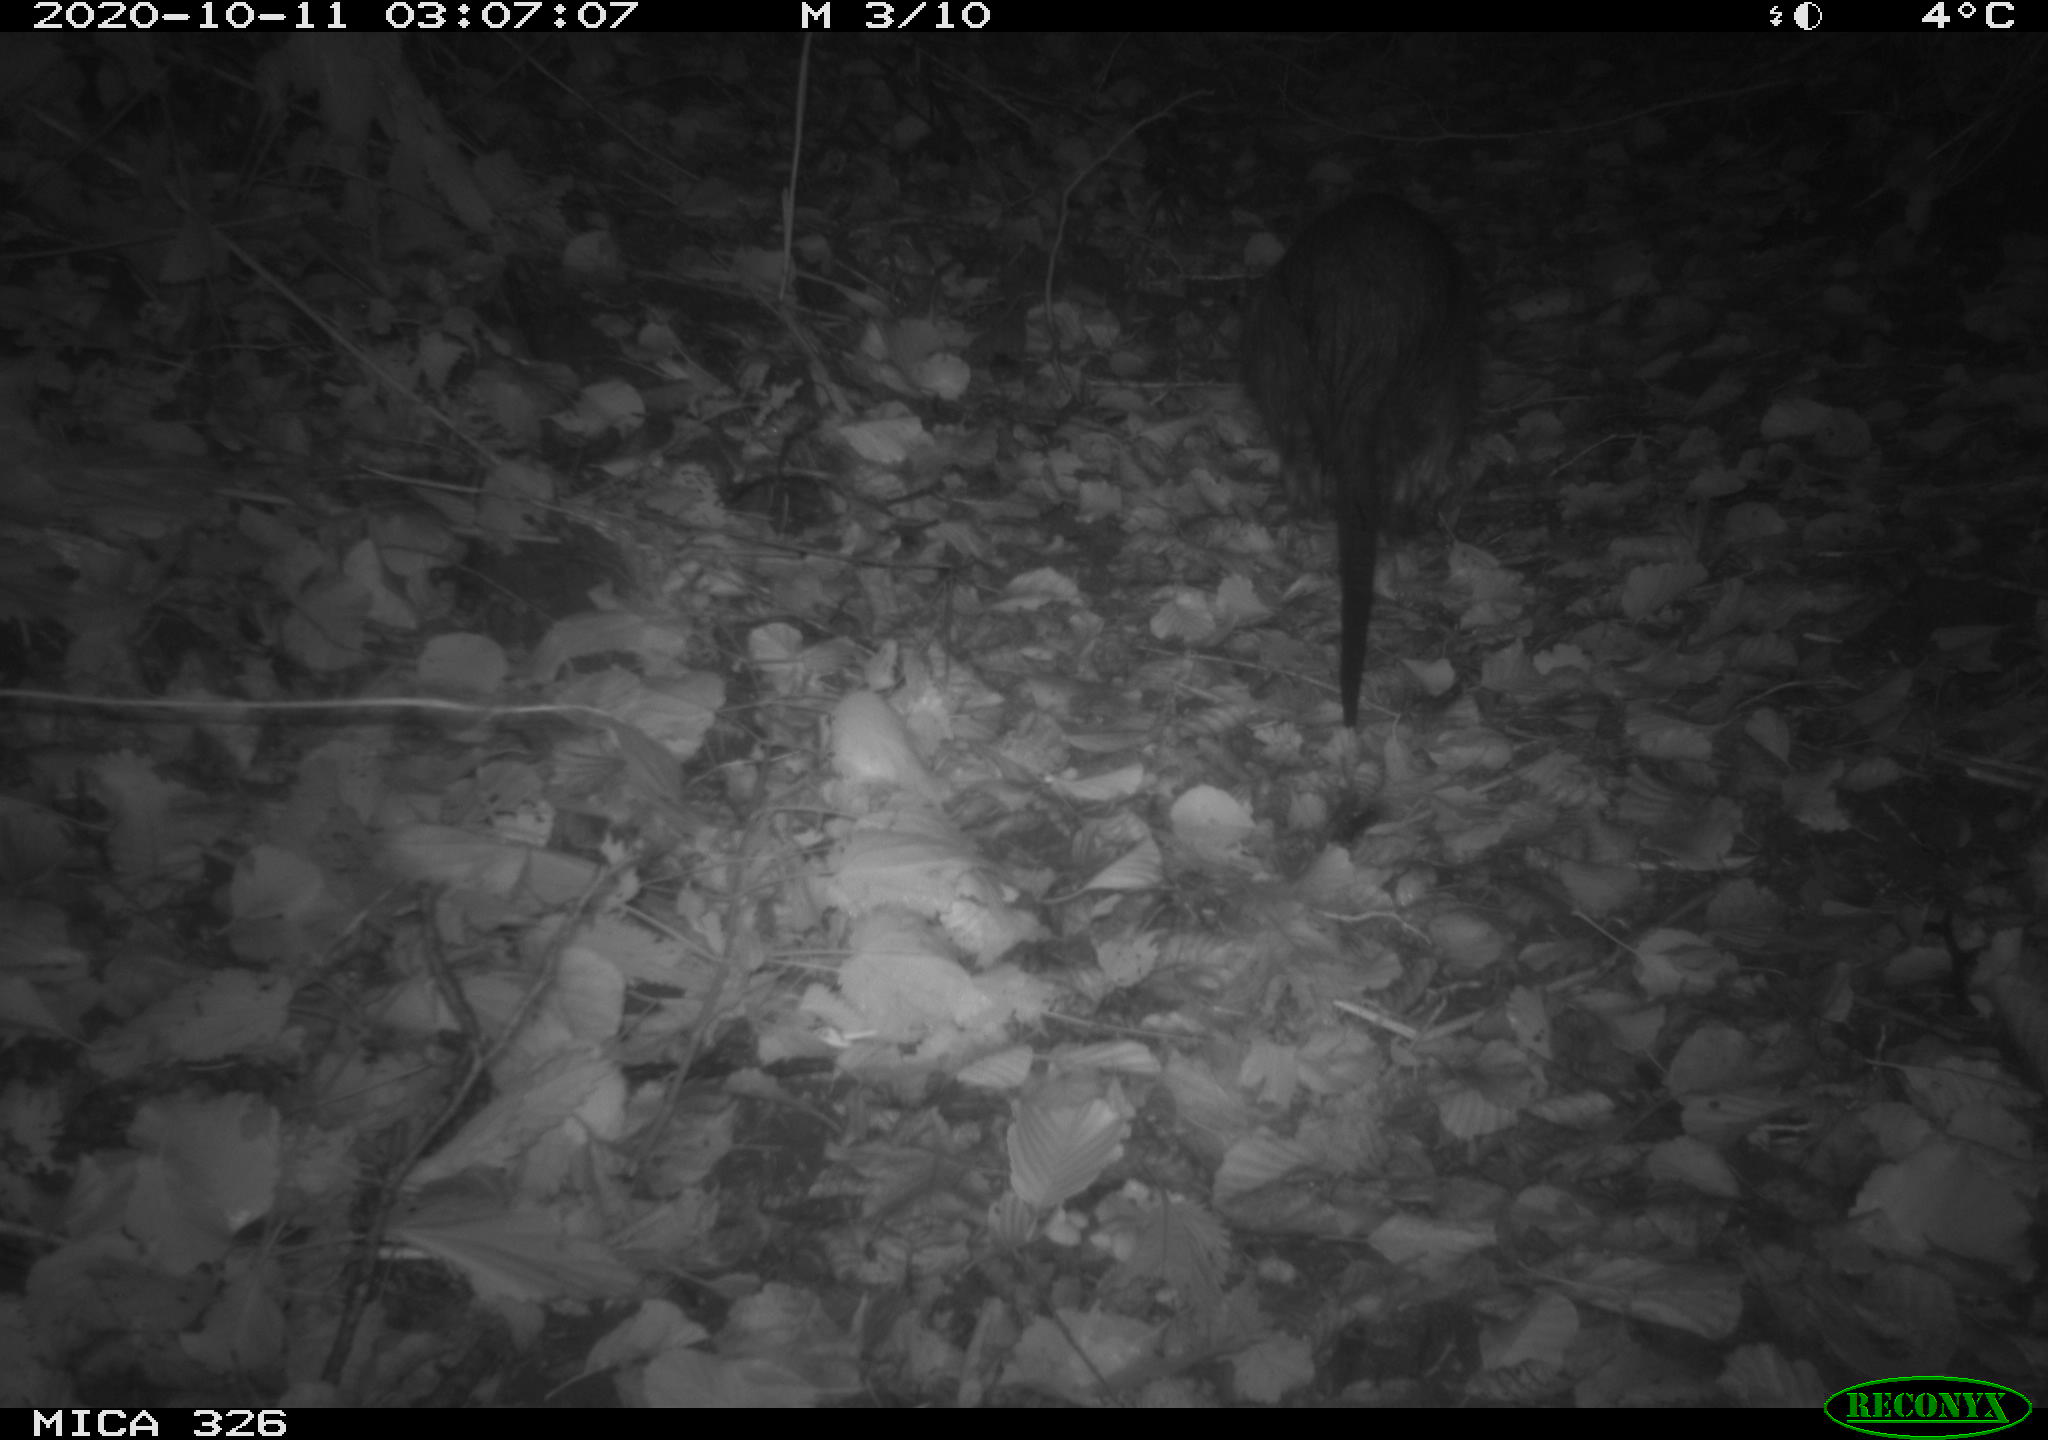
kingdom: Animalia
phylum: Chordata
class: Mammalia
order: Rodentia
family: Myocastoridae
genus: Myocastor
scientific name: Myocastor coypus
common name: Coypu
